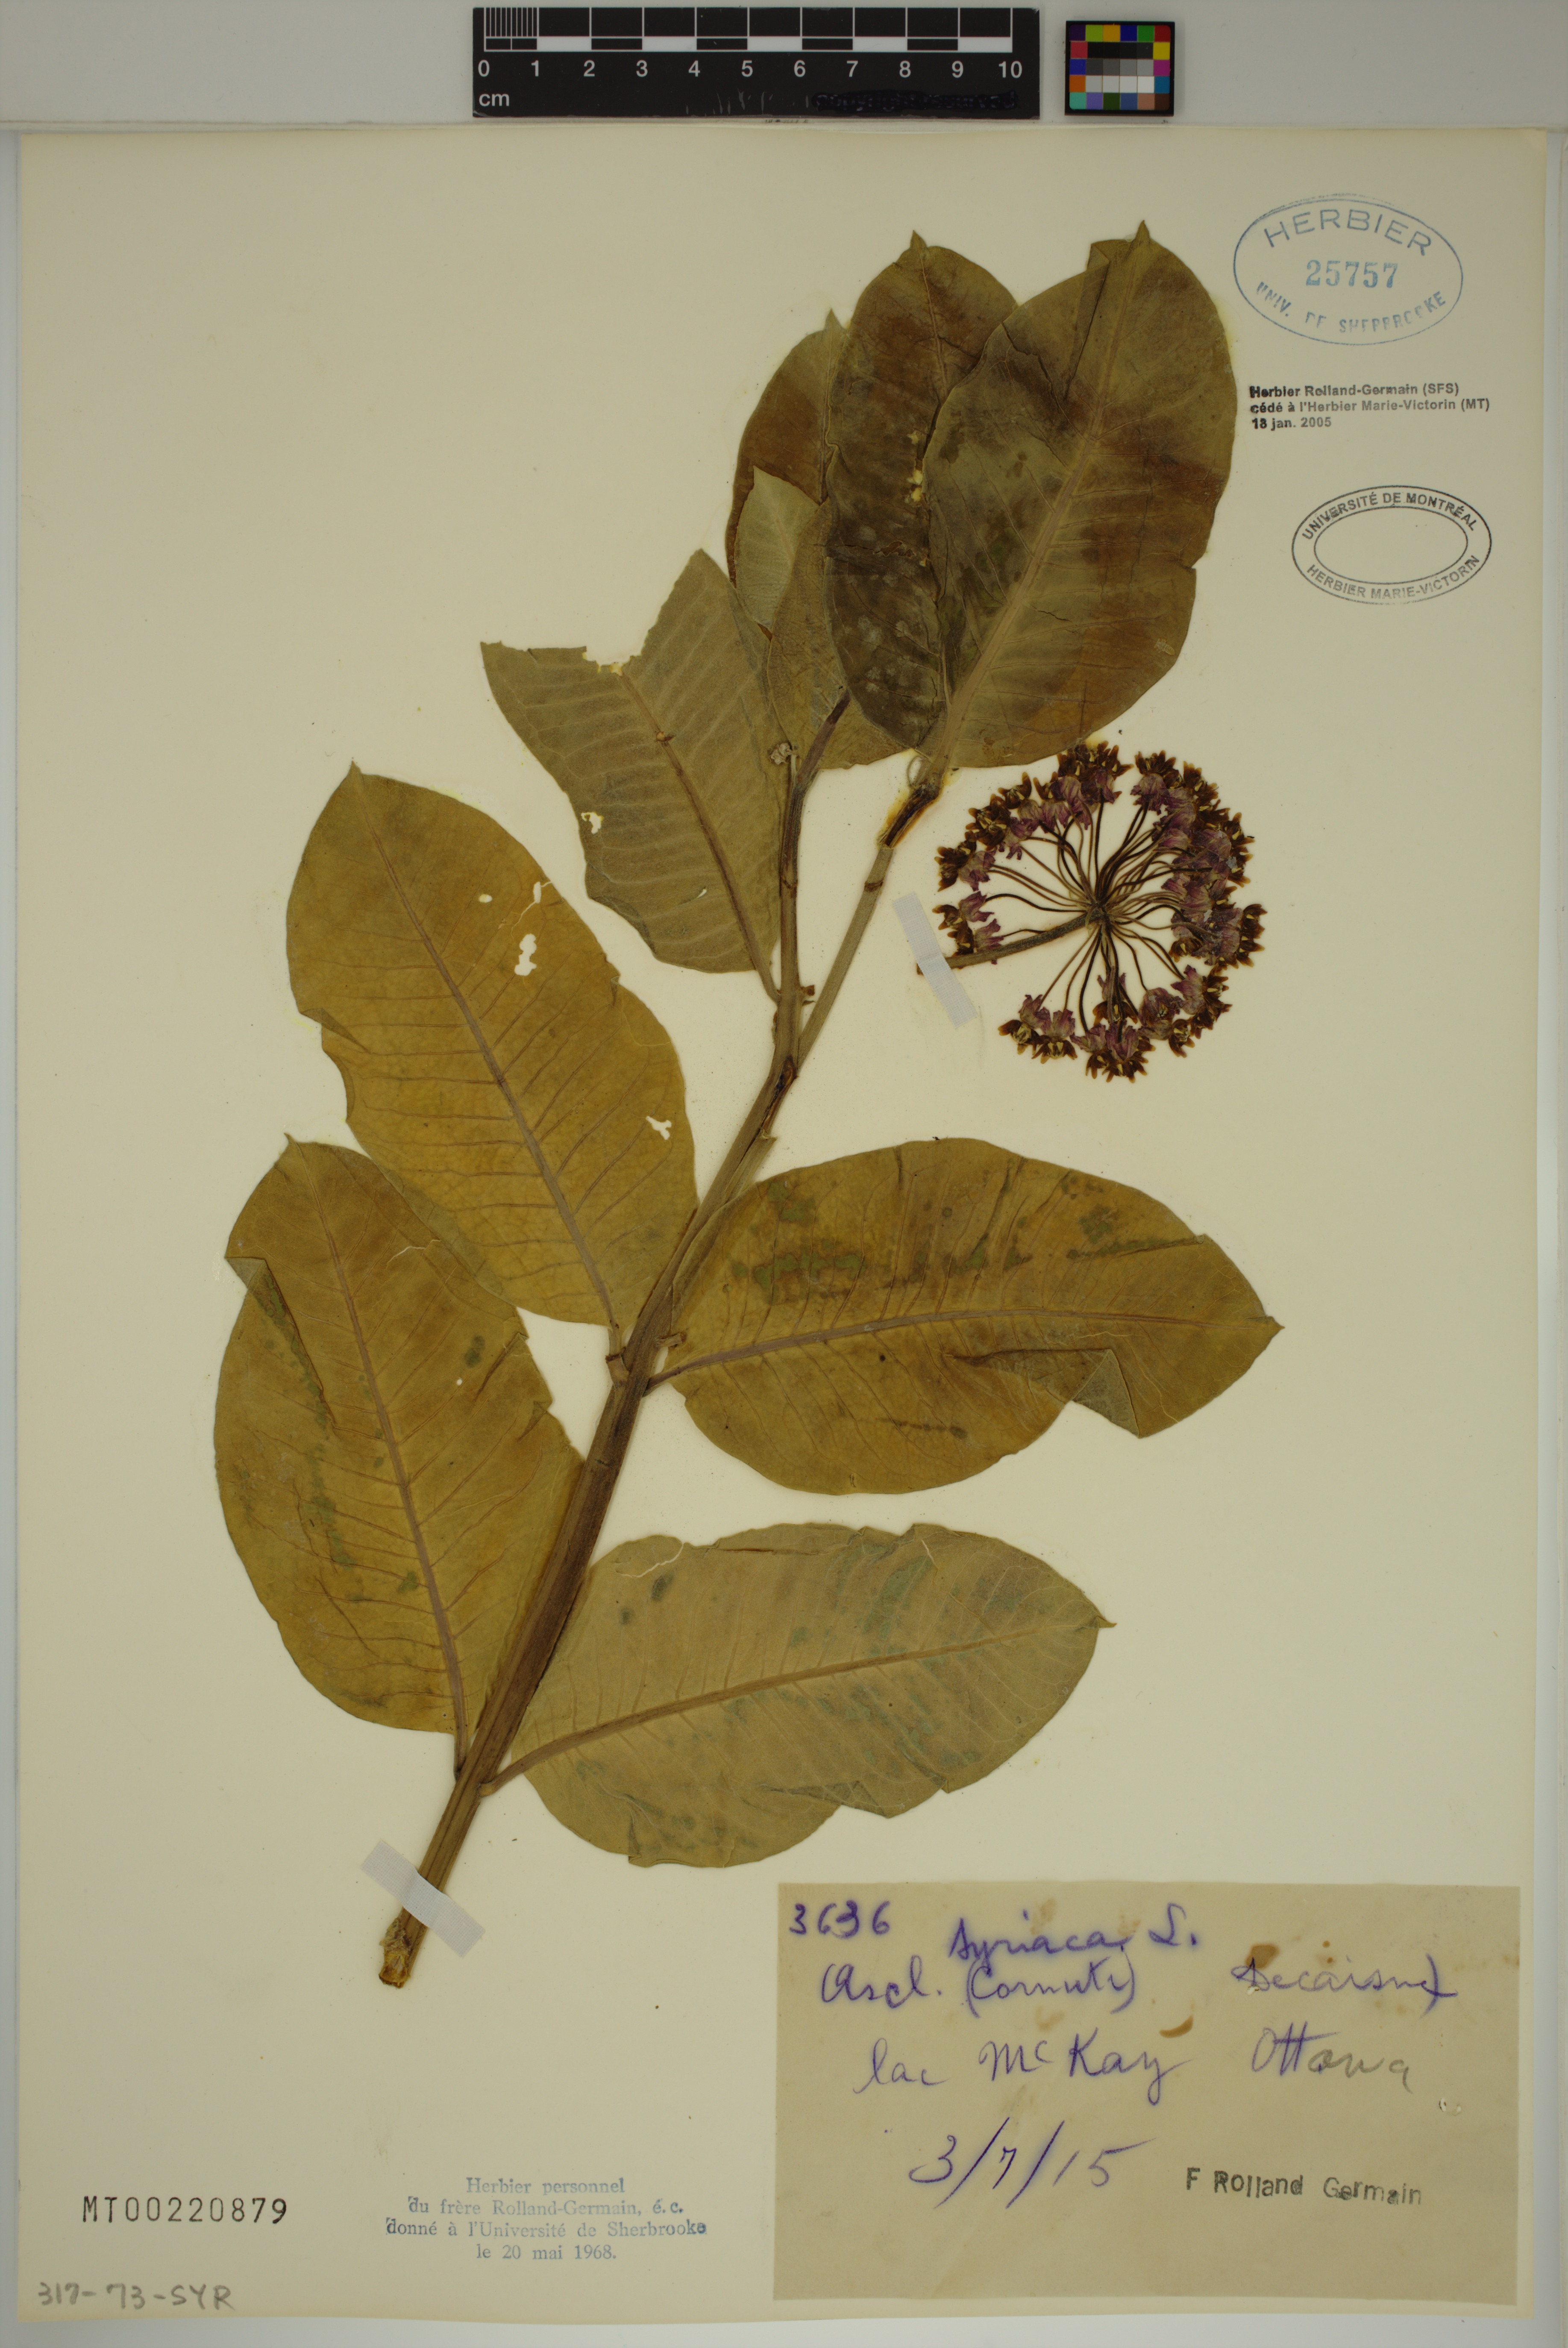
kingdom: Plantae
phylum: Tracheophyta
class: Magnoliopsida
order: Gentianales
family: Apocynaceae
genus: Asclepias
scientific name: Asclepias syriaca
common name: Common milkweed
